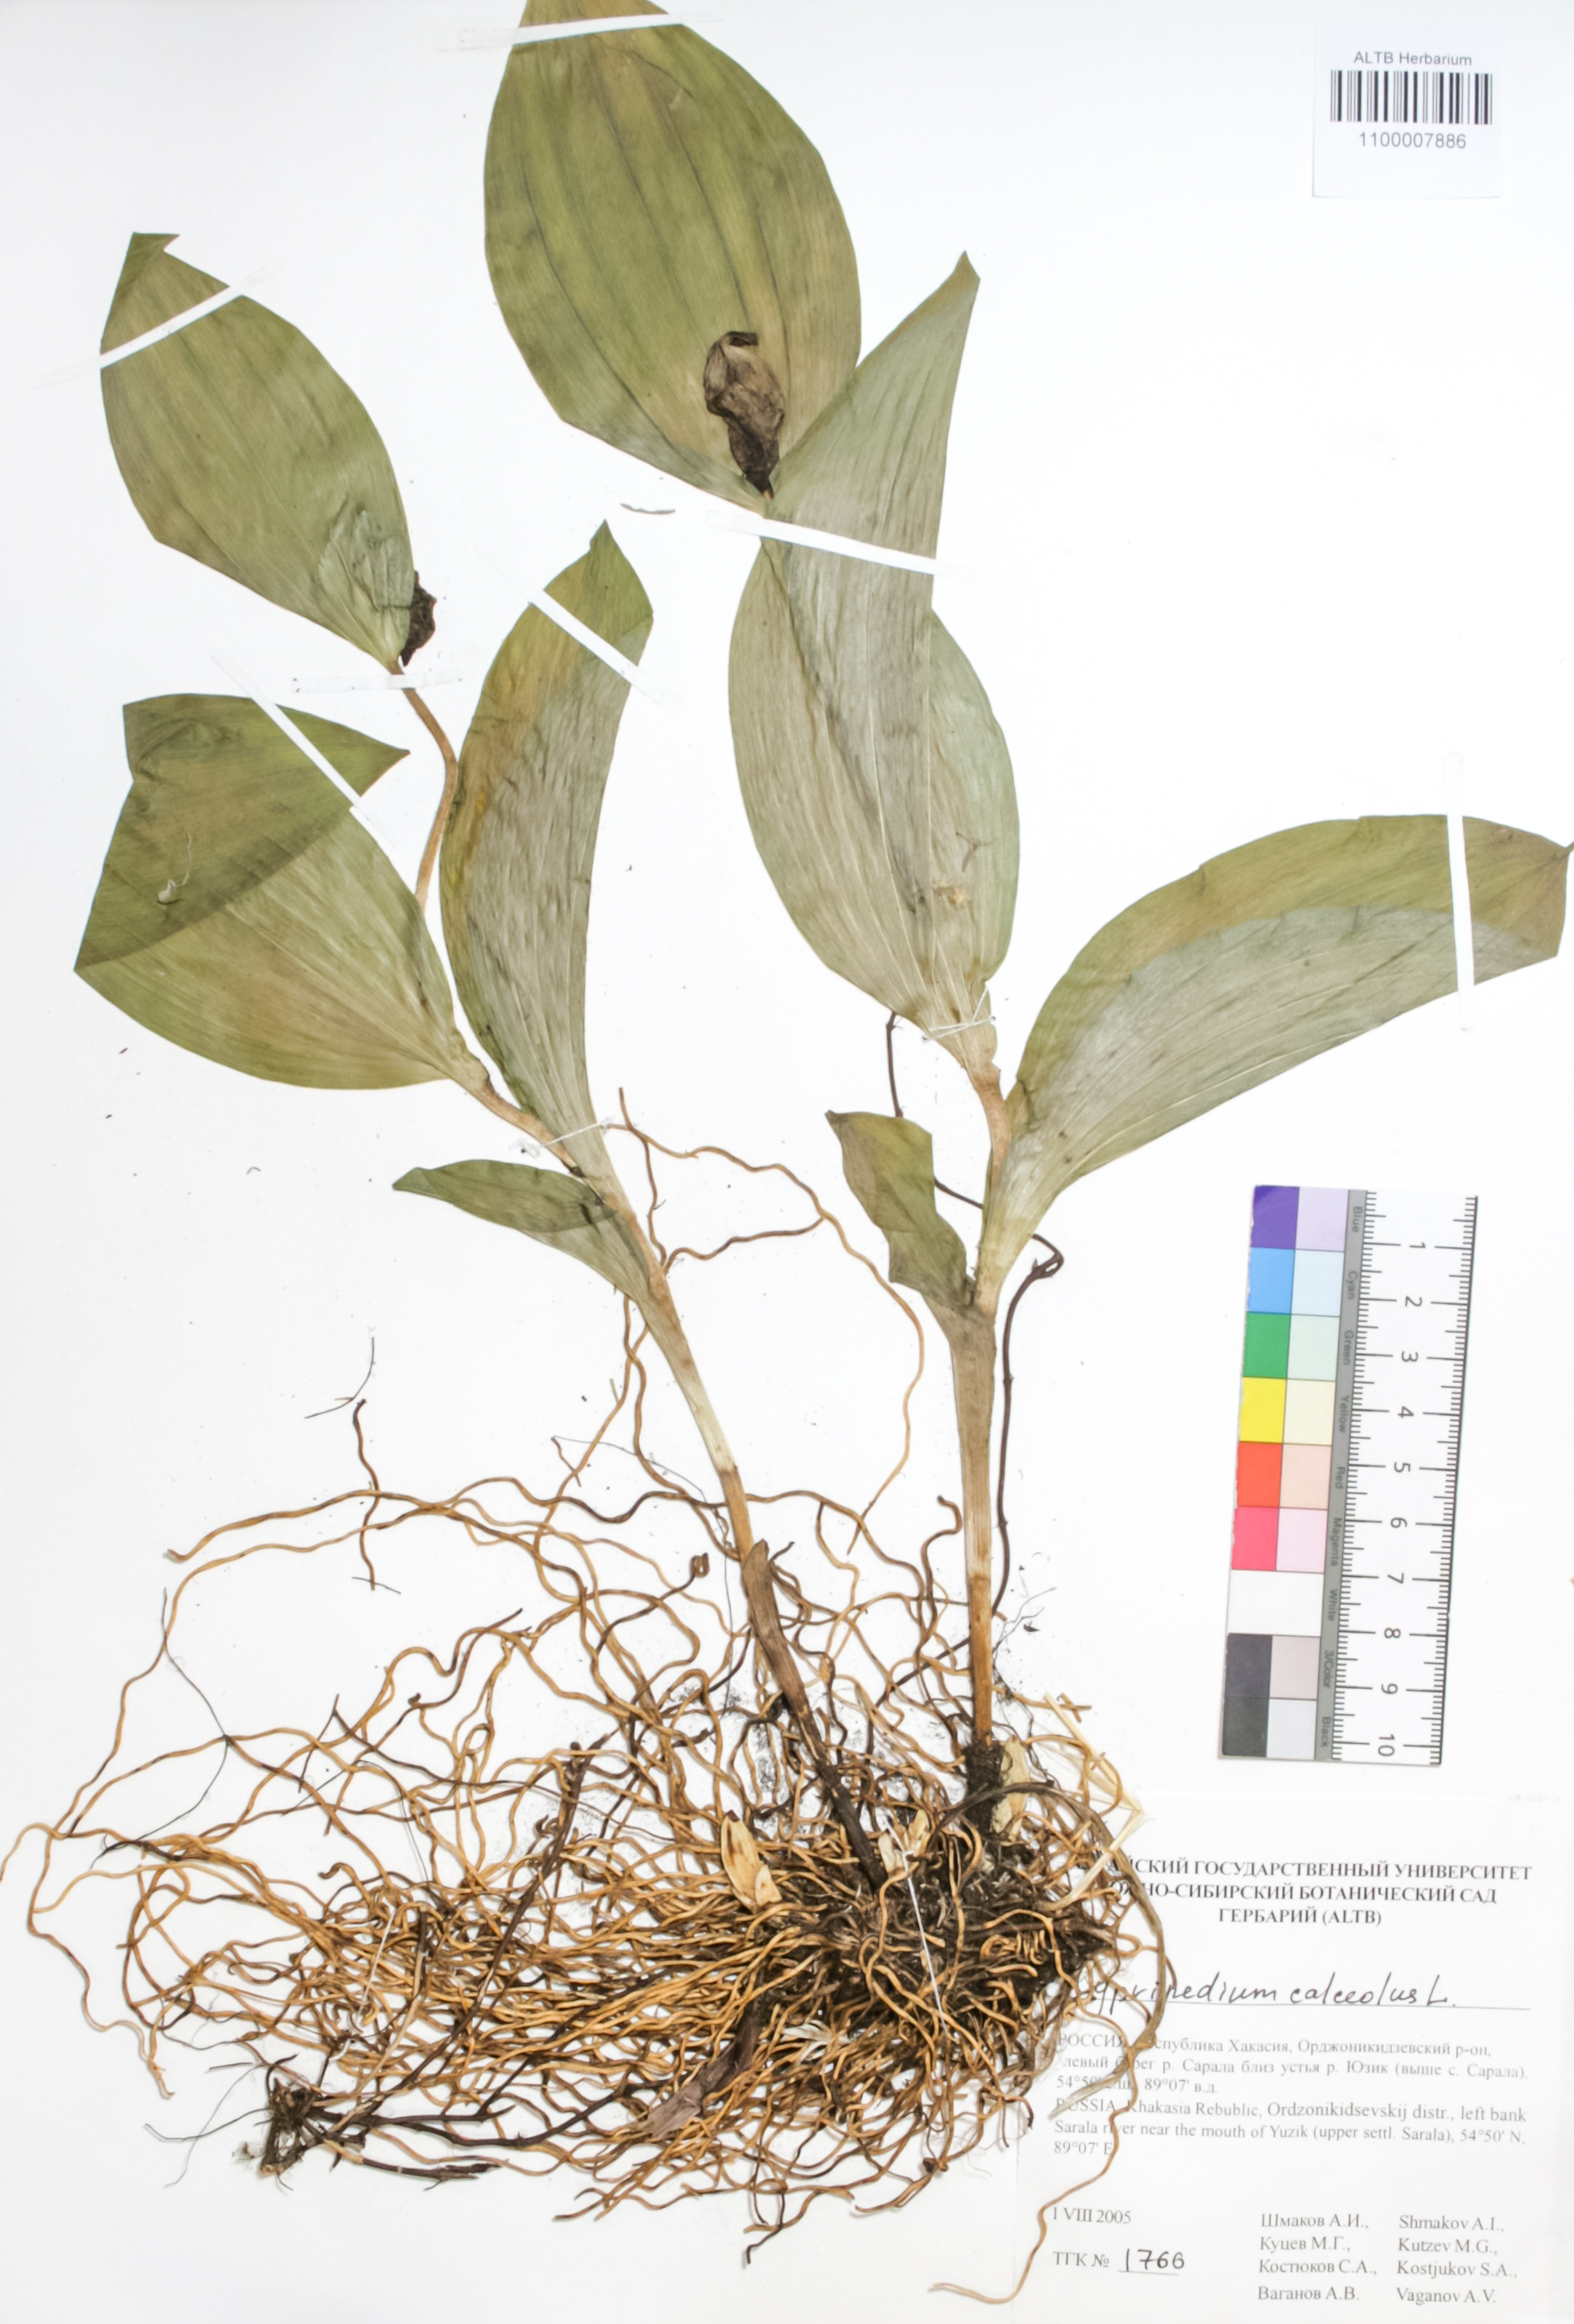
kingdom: Plantae
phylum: Tracheophyta
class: Liliopsida
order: Asparagales
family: Orchidaceae
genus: Cypripedium
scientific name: Cypripedium calceolus
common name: Lady's-slipper
